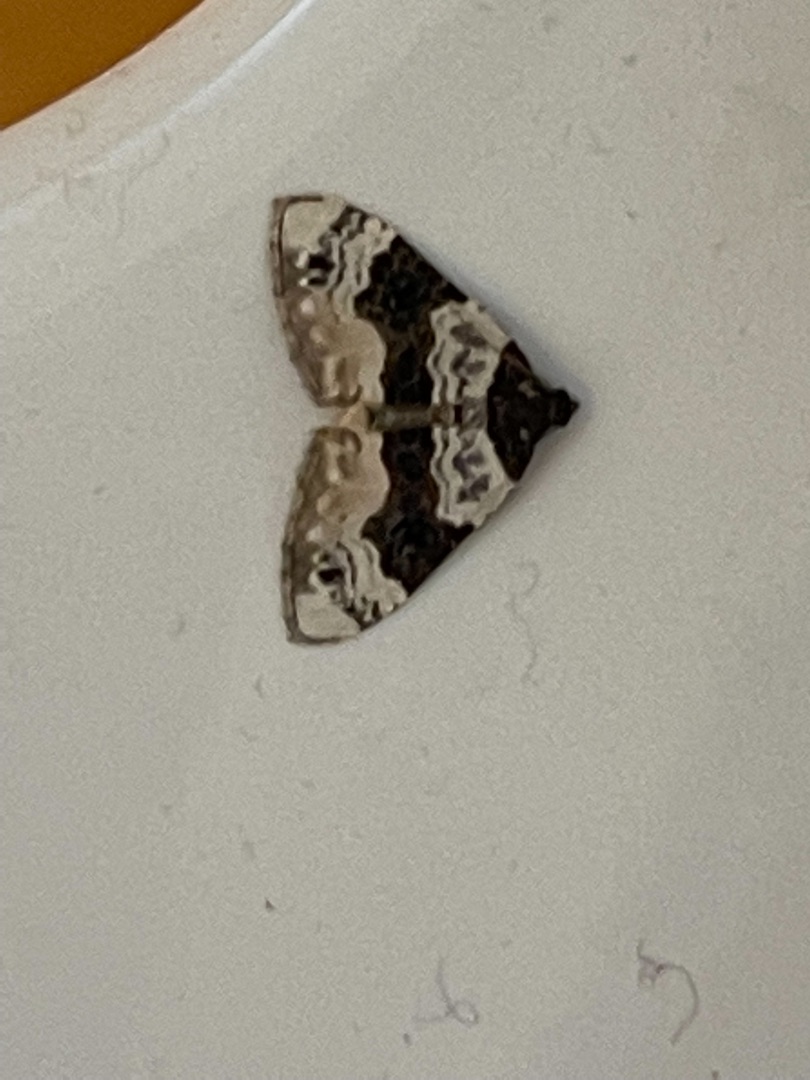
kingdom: Animalia
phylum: Arthropoda
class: Insecta
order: Lepidoptera
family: Geometridae
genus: Cosmorhoe
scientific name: Cosmorhoe ocellata
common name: Snerre-bladmåler
